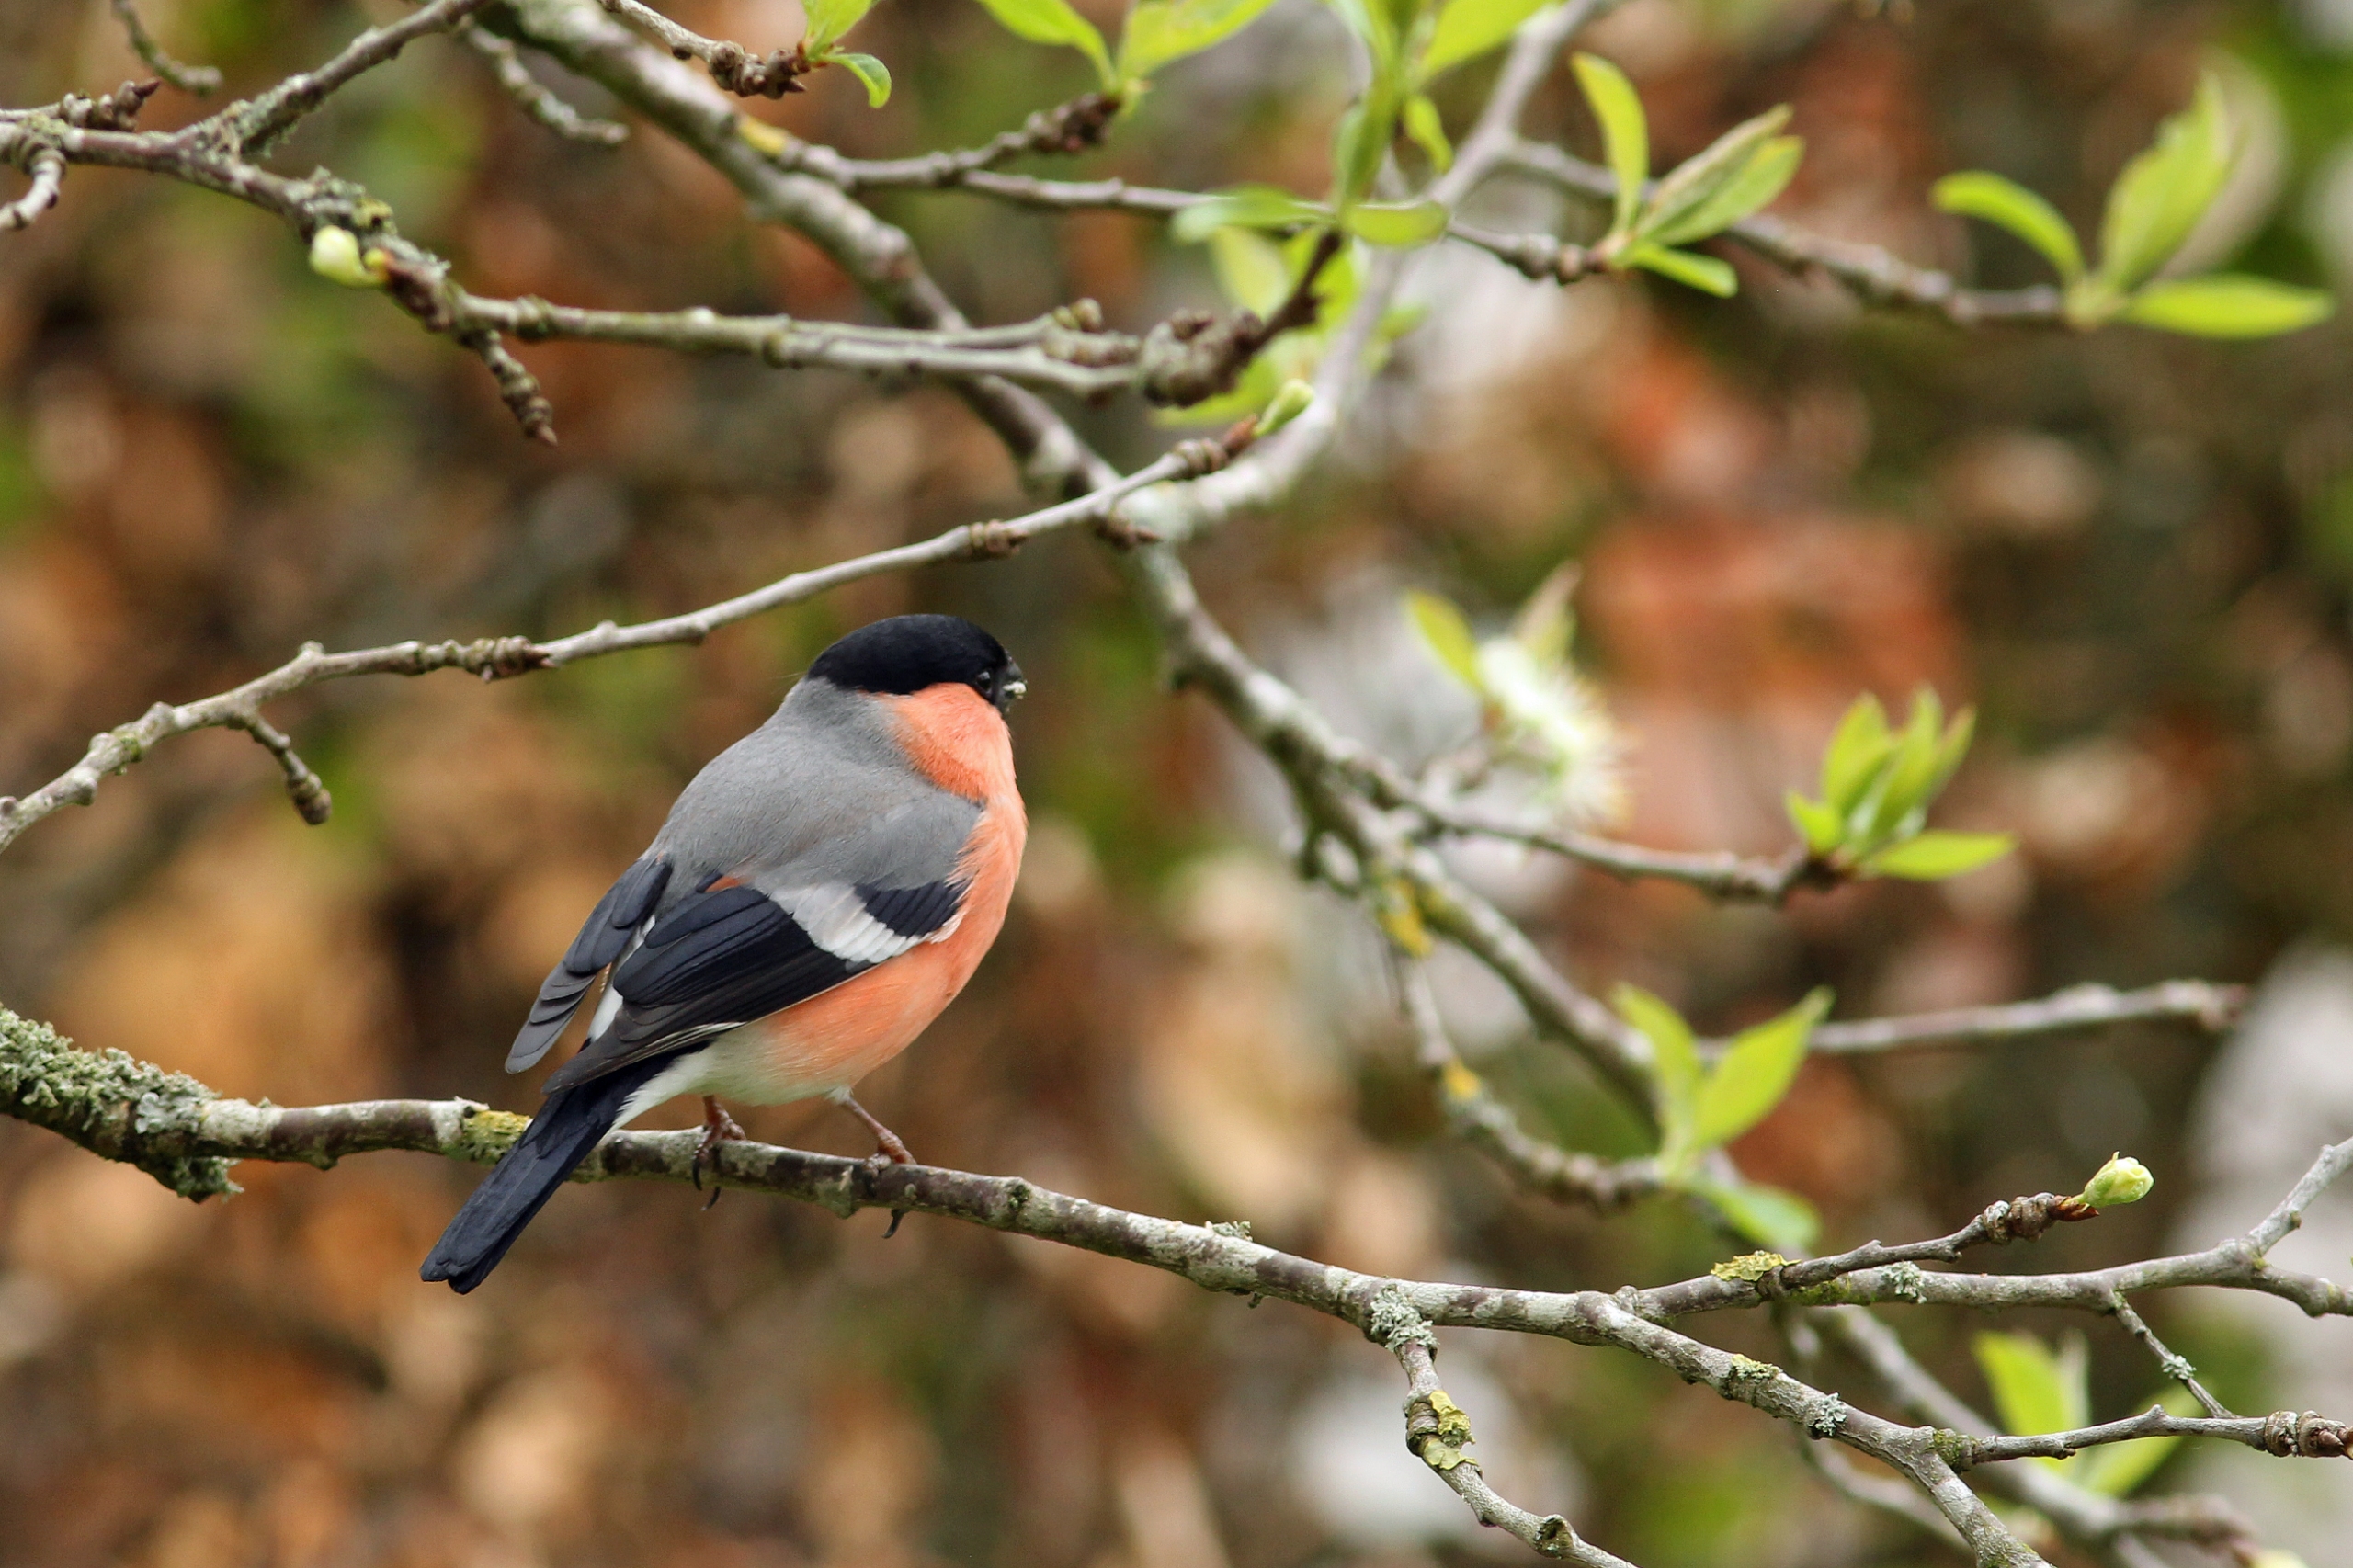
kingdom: Animalia
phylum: Chordata
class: Aves
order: Passeriformes
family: Fringillidae
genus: Pyrrhula
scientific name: Pyrrhula pyrrhula
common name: Dompap
